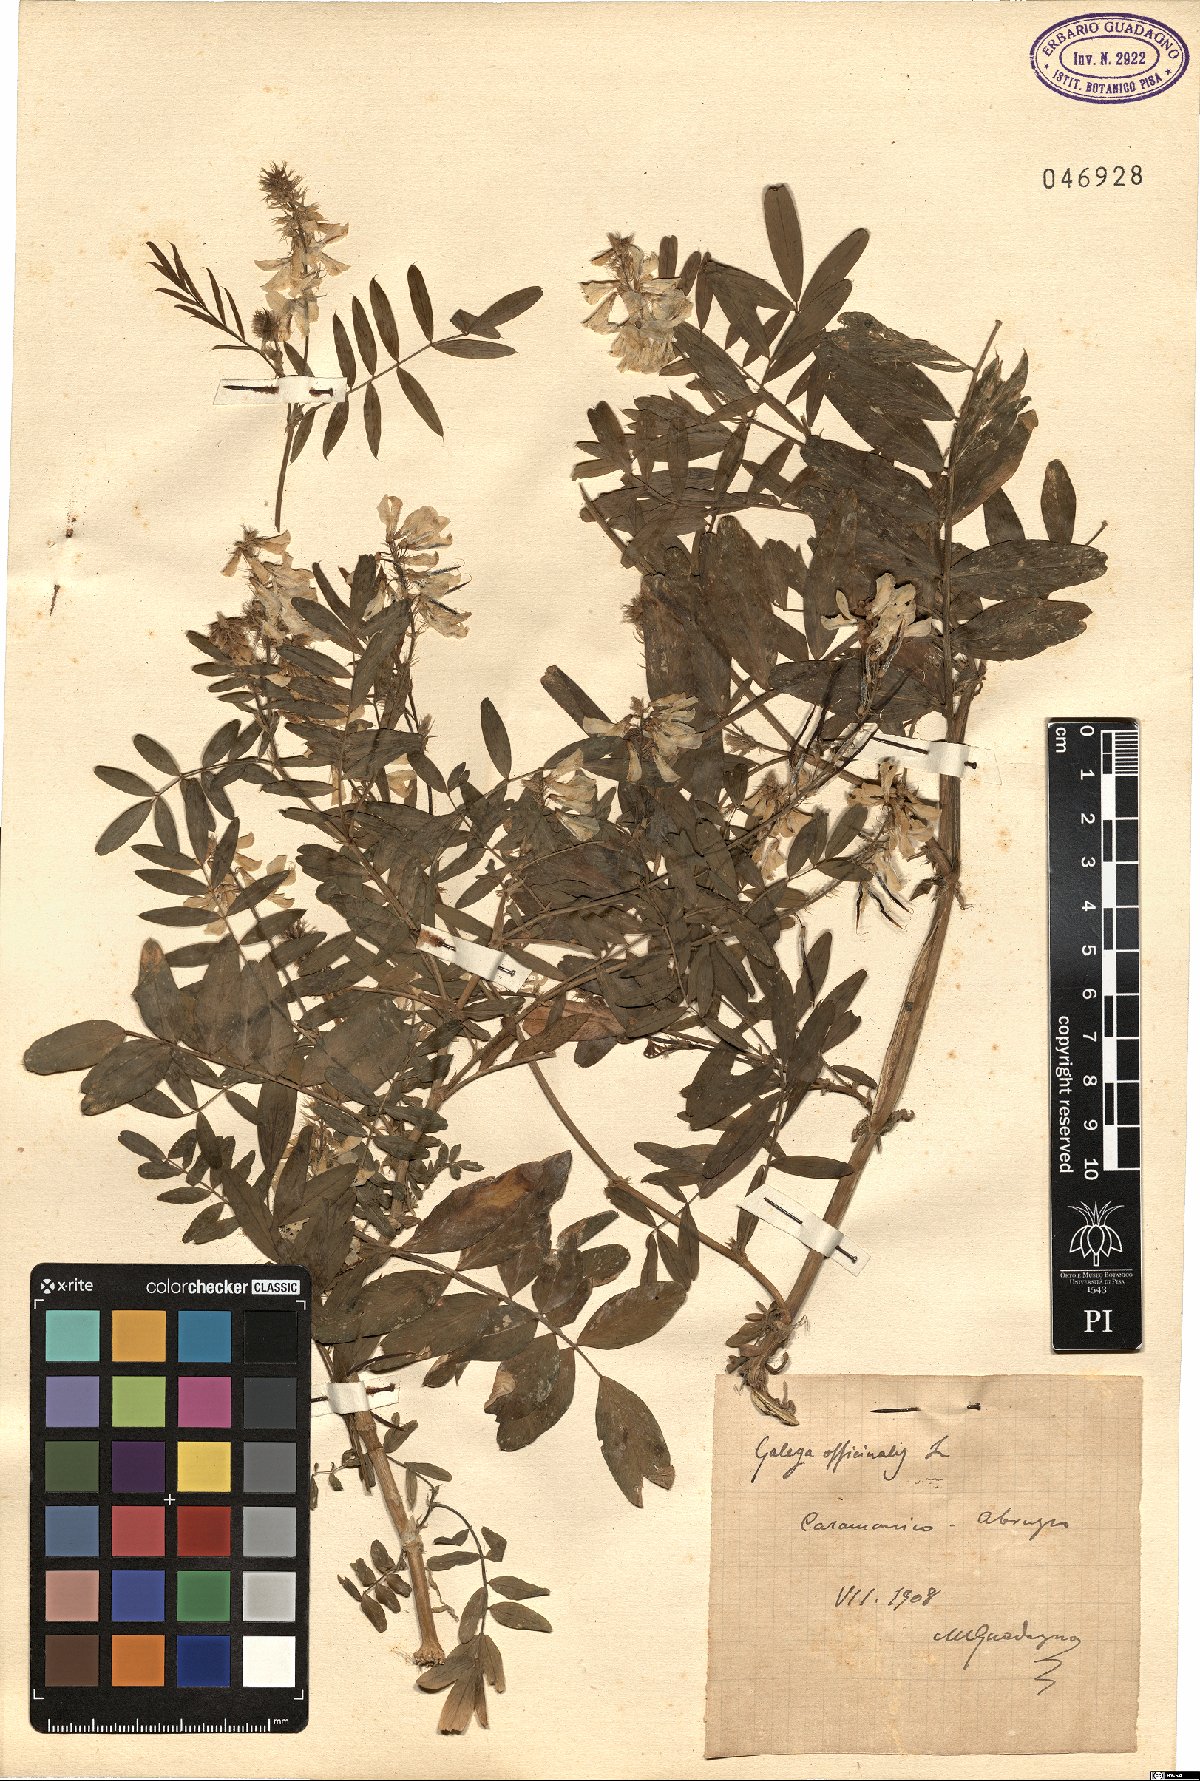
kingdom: Plantae
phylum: Tracheophyta
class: Magnoliopsida
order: Fabales
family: Fabaceae
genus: Galega
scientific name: Galega officinalis
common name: Goat's-rue
